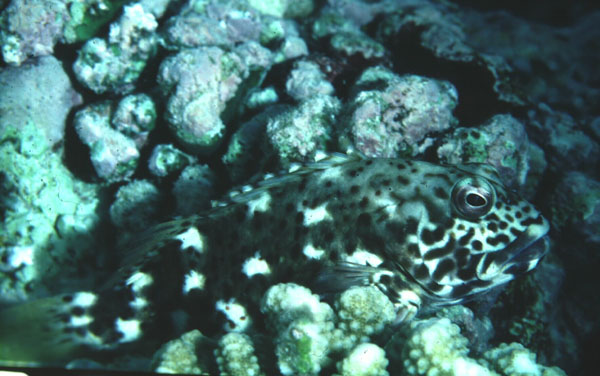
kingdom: Animalia
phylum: Chordata
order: Perciformes
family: Cirrhitidae
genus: Cirrhitus
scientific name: Cirrhitus pinnulatus
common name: Stocky hawkfish
